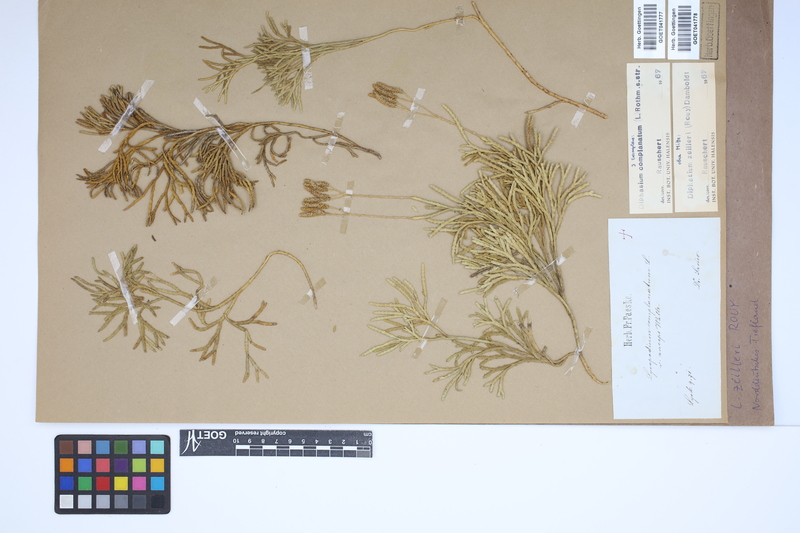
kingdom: Plantae
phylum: Tracheophyta
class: Lycopodiopsida
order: Lycopodiales
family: Lycopodiaceae
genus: Diphasiastrum
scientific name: Diphasiastrum complanatum
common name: Northern running-pine
